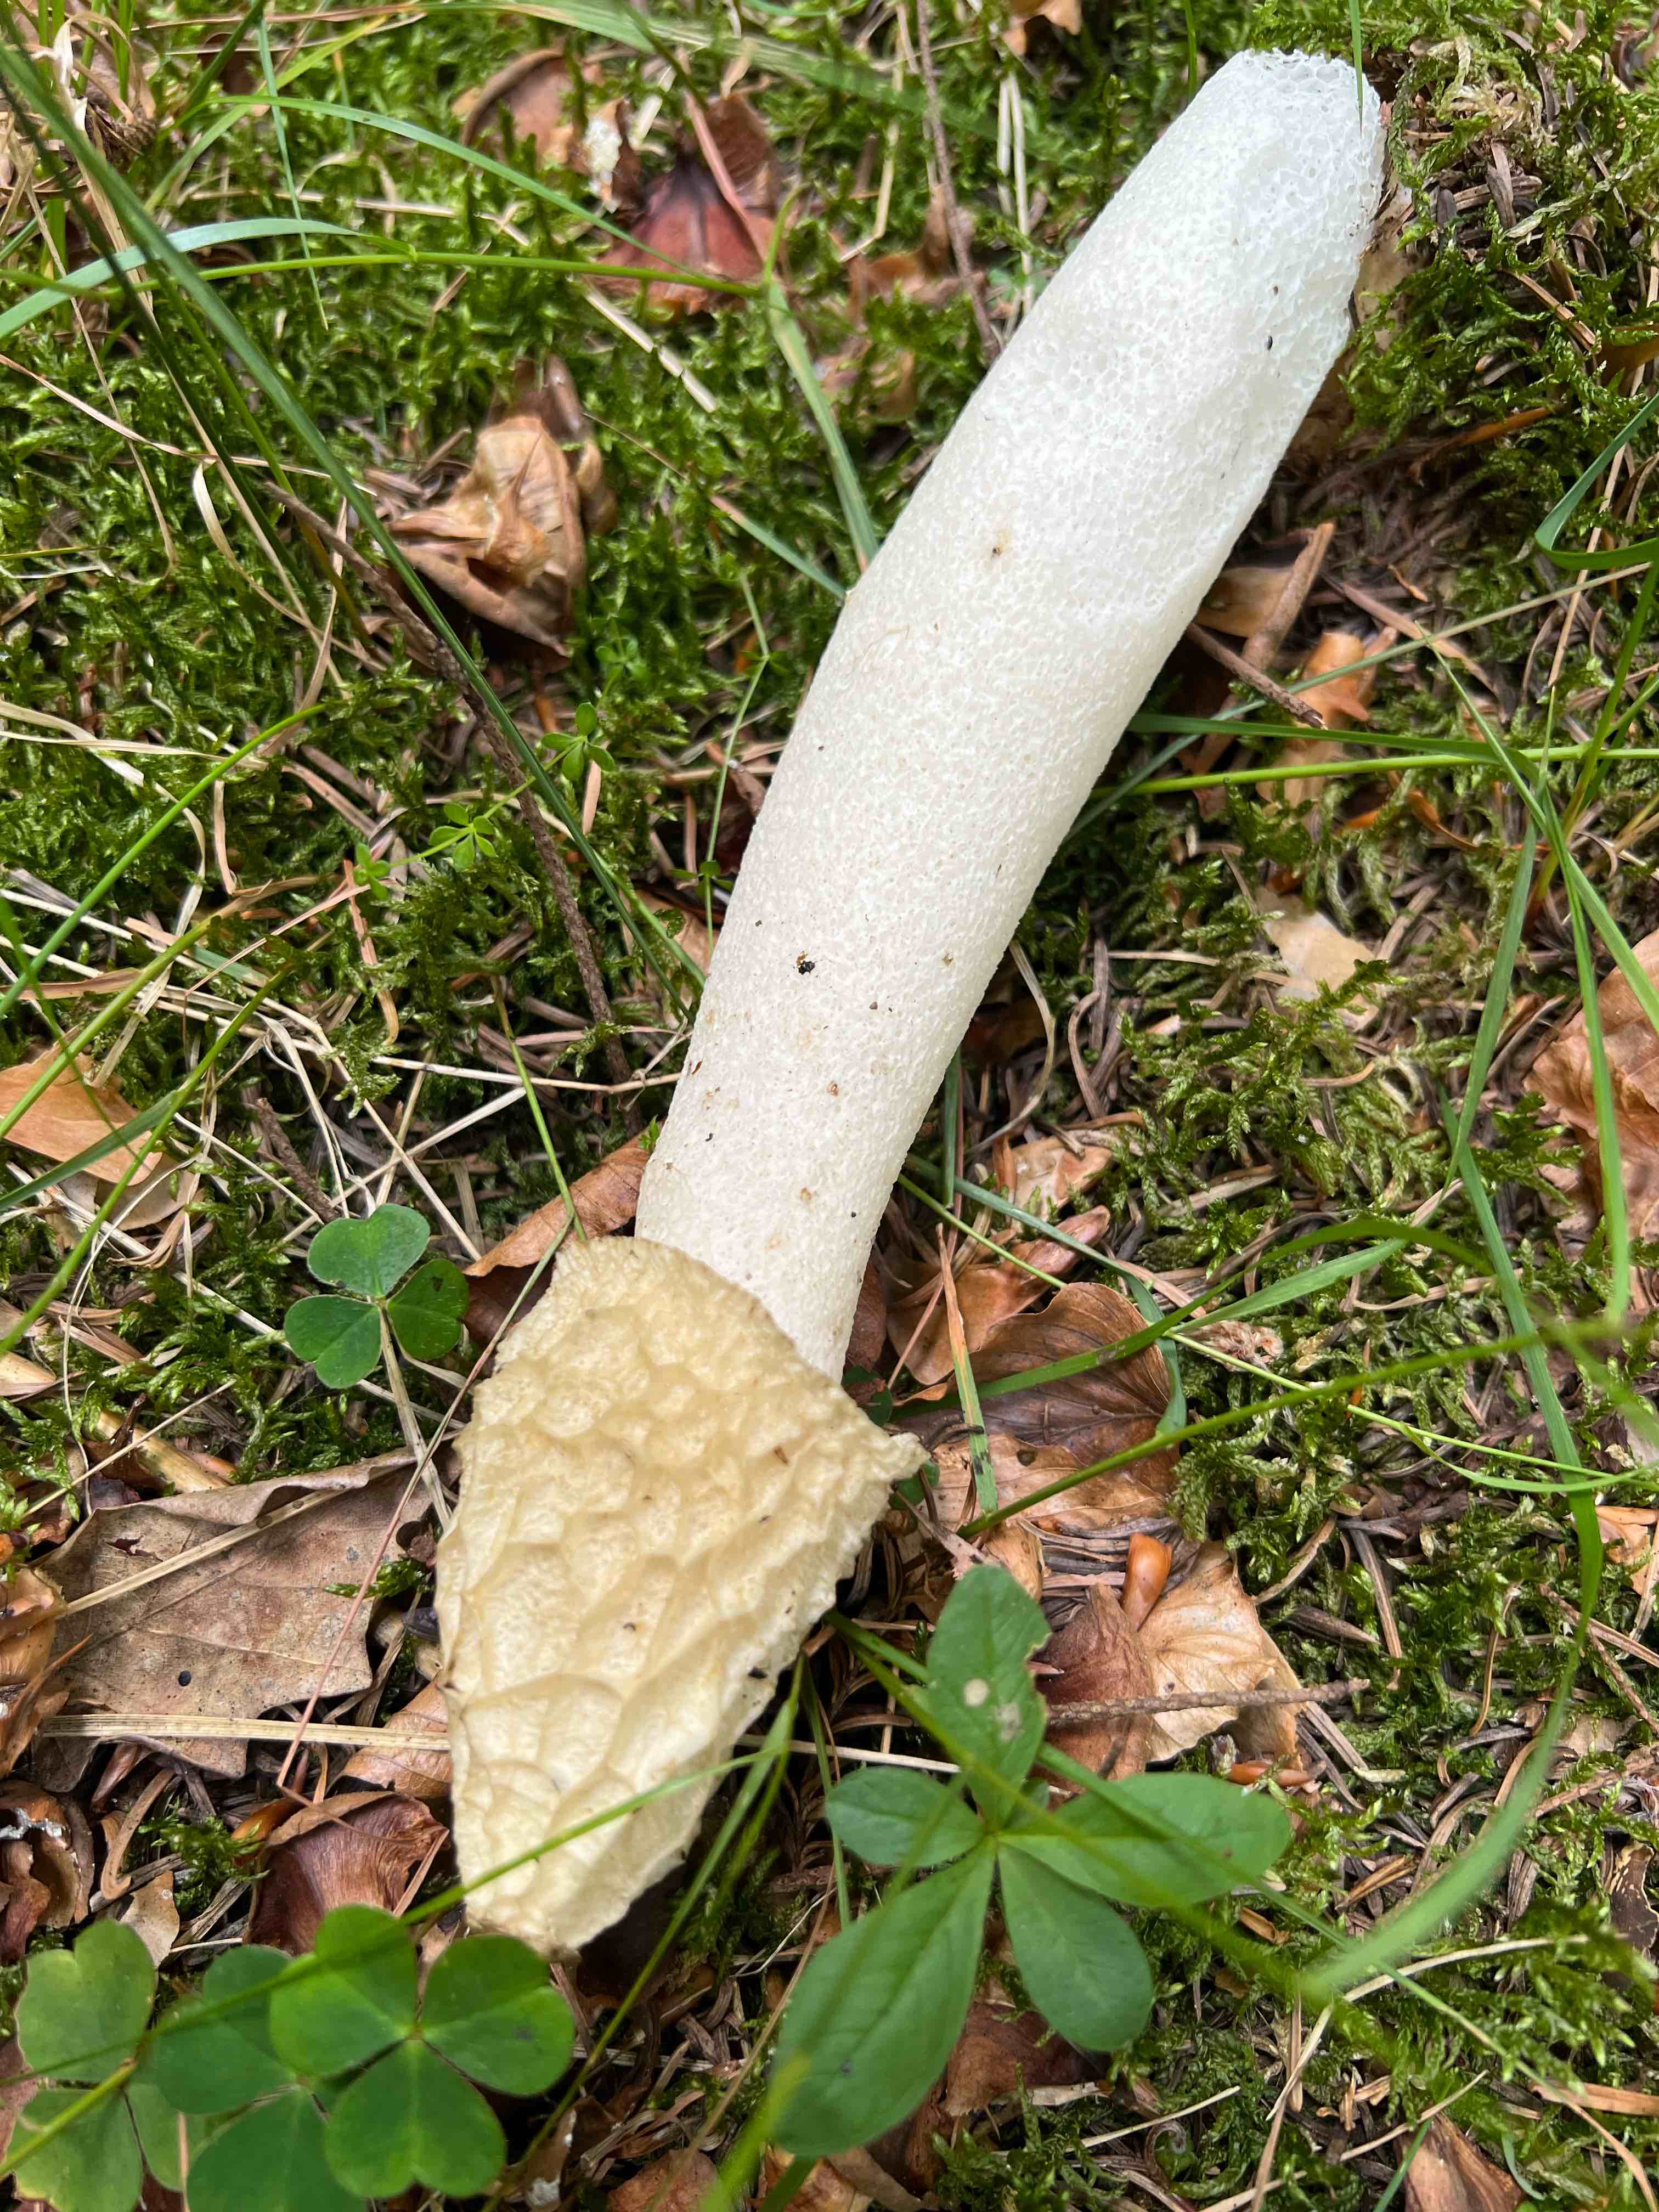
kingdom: Fungi
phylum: Basidiomycota
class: Agaricomycetes
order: Phallales
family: Phallaceae
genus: Phallus
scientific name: Phallus impudicus
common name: almindelig stinksvamp
